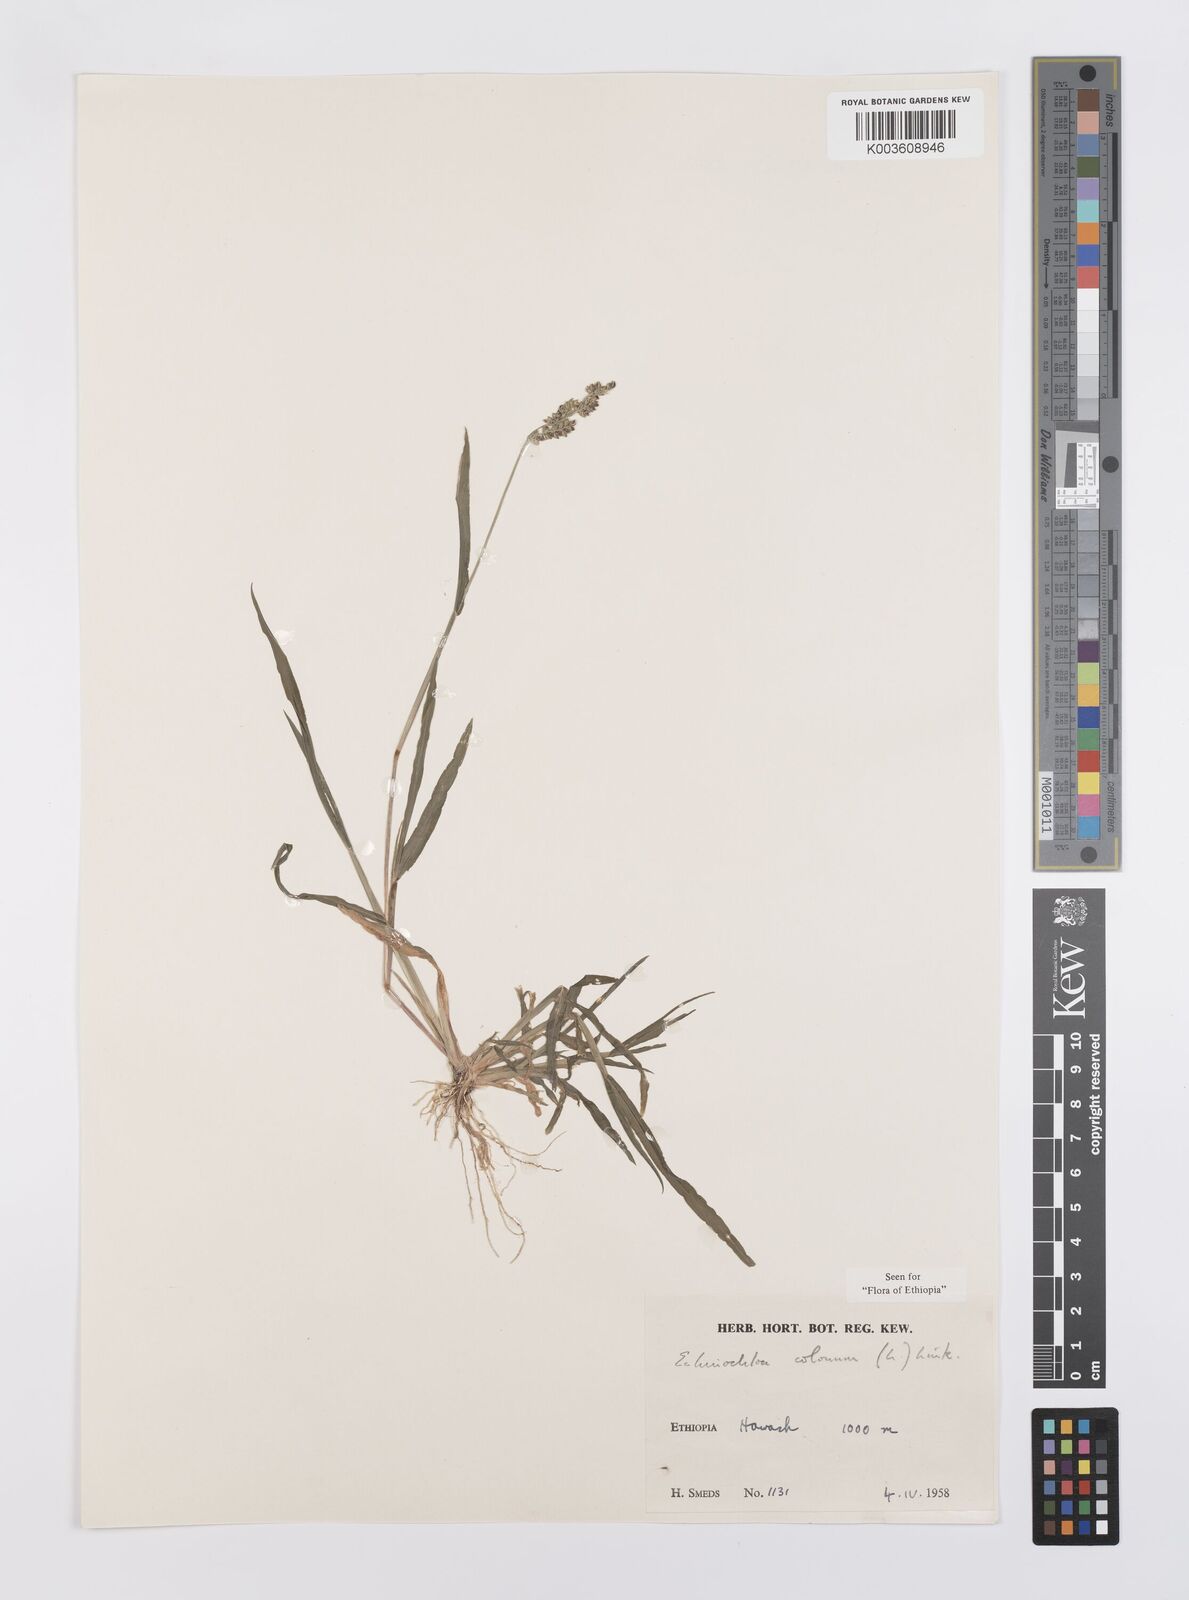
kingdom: Plantae
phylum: Tracheophyta
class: Liliopsida
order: Poales
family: Poaceae
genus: Echinochloa
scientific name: Echinochloa colonum
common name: Jungle rice
